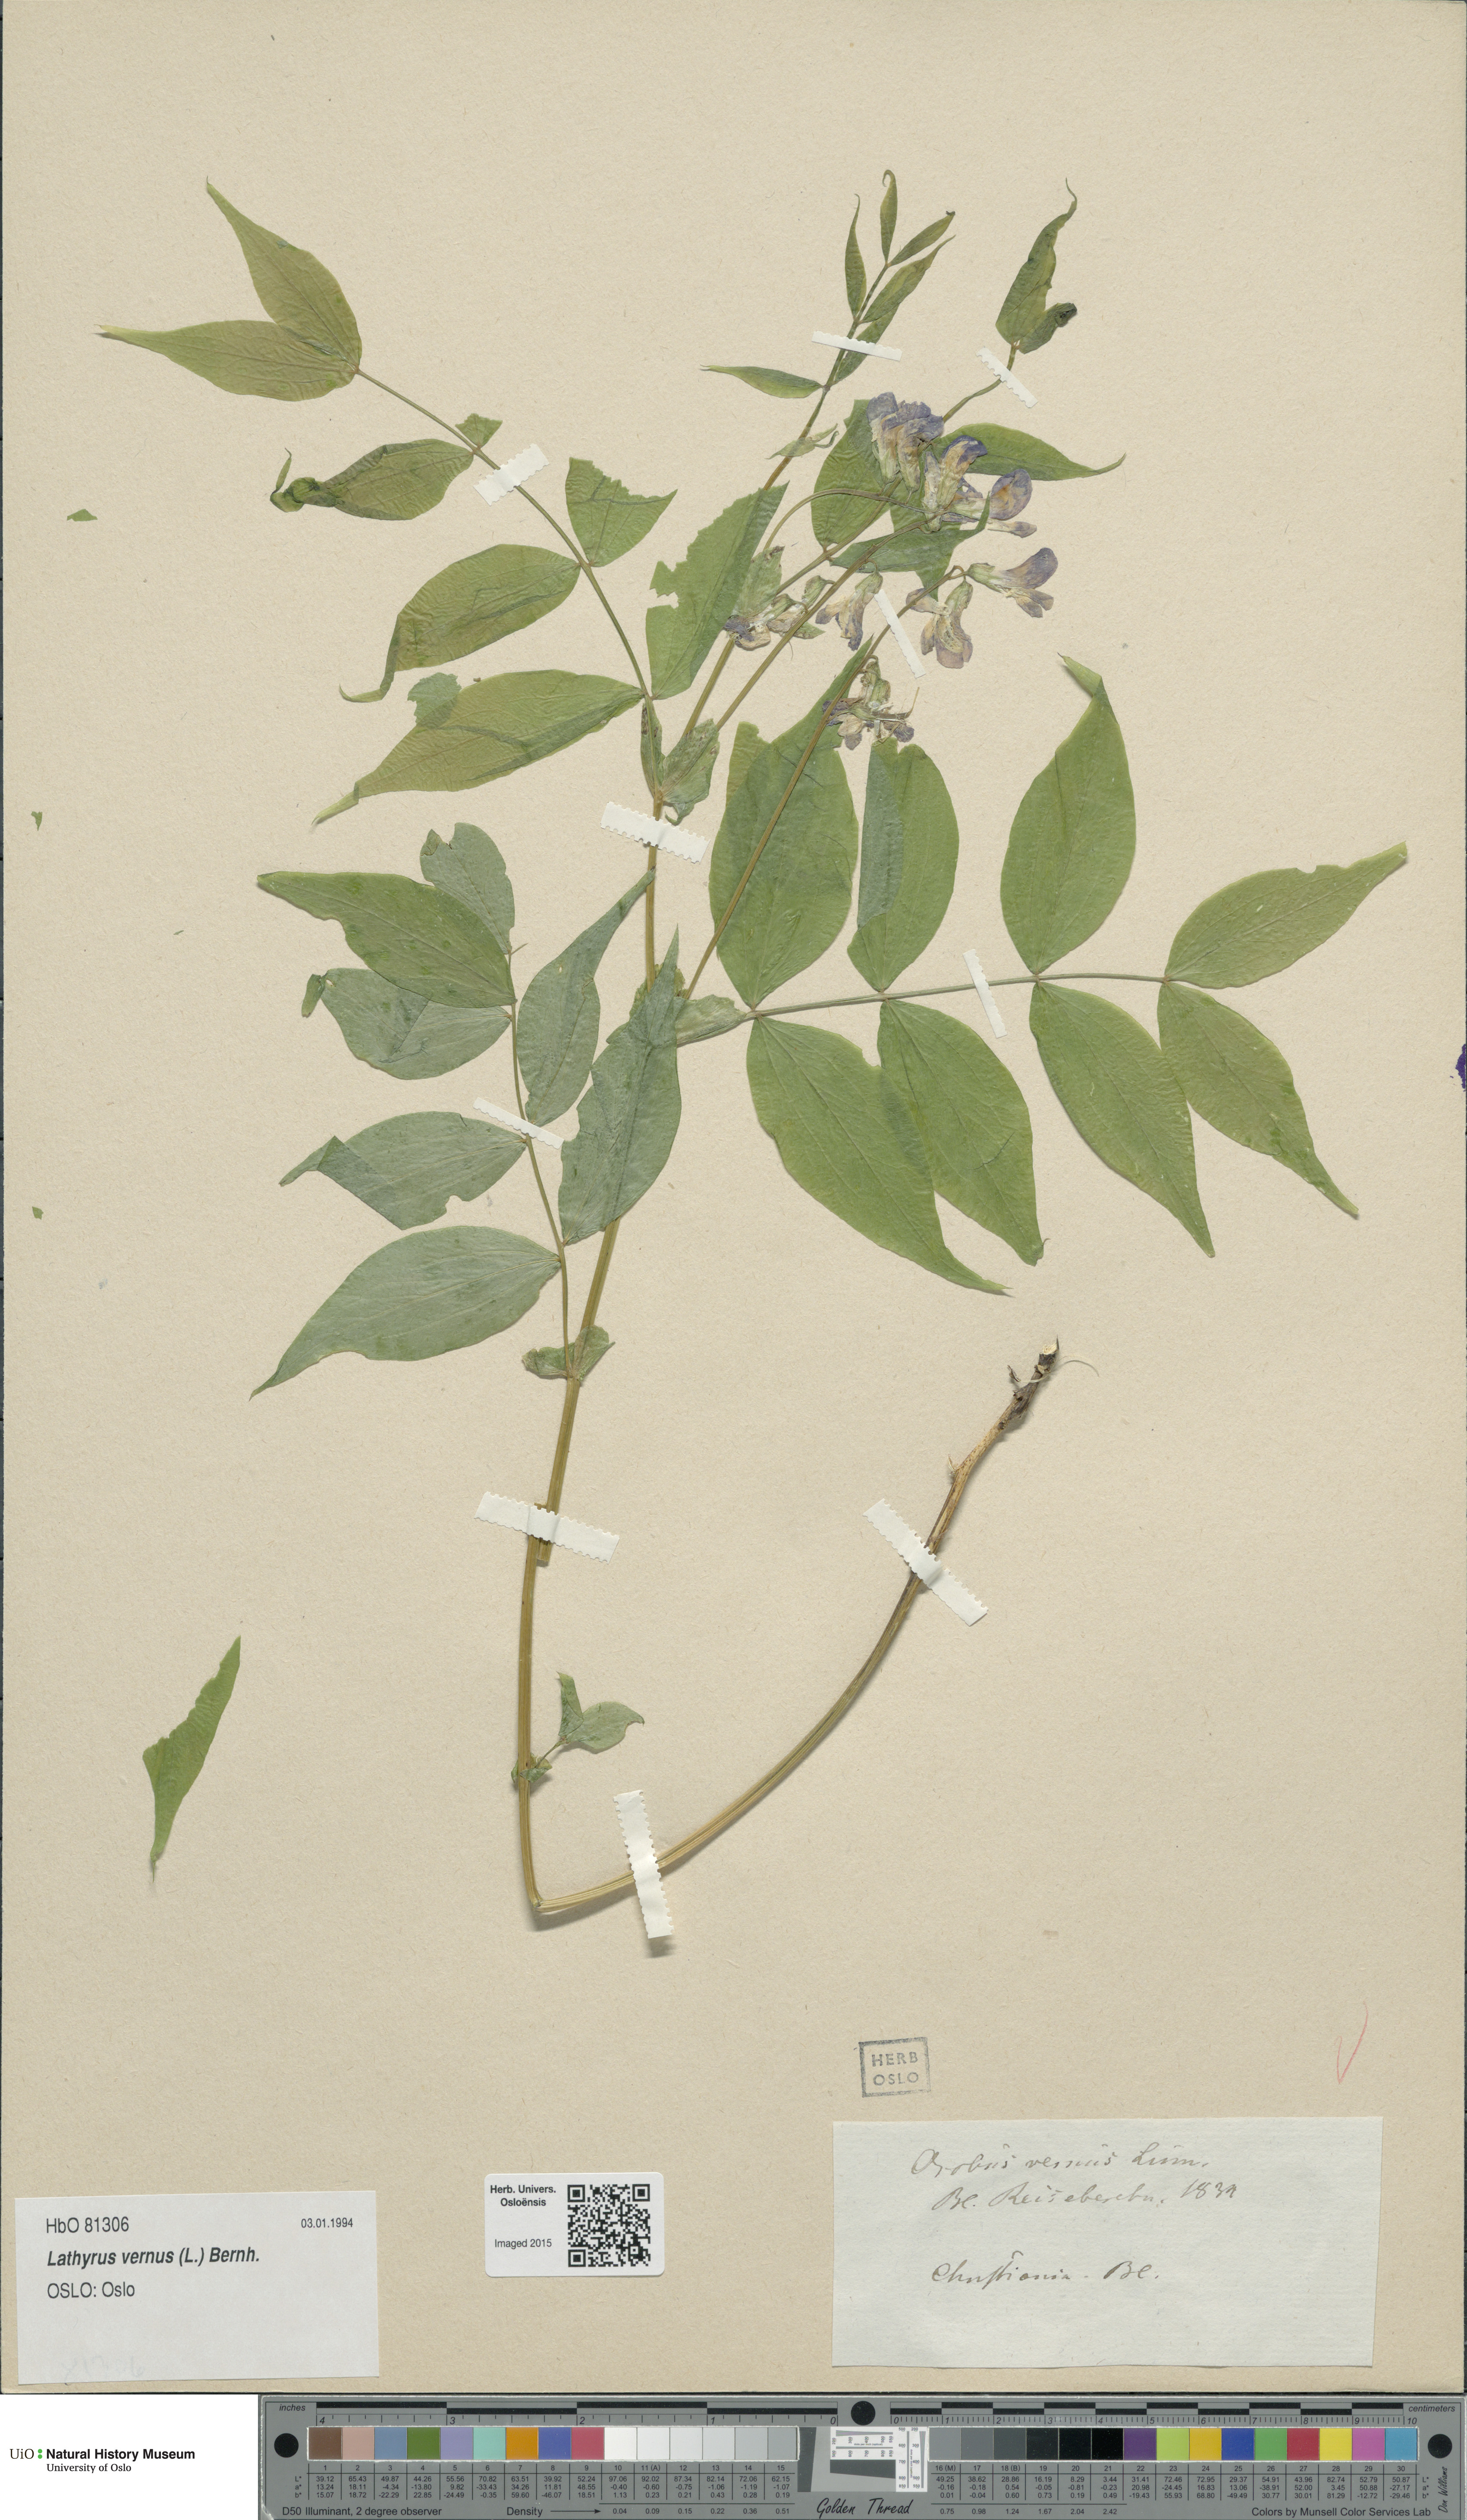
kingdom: Plantae
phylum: Tracheophyta
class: Magnoliopsida
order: Fabales
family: Fabaceae
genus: Lathyrus
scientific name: Lathyrus vernus
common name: Spring pea
